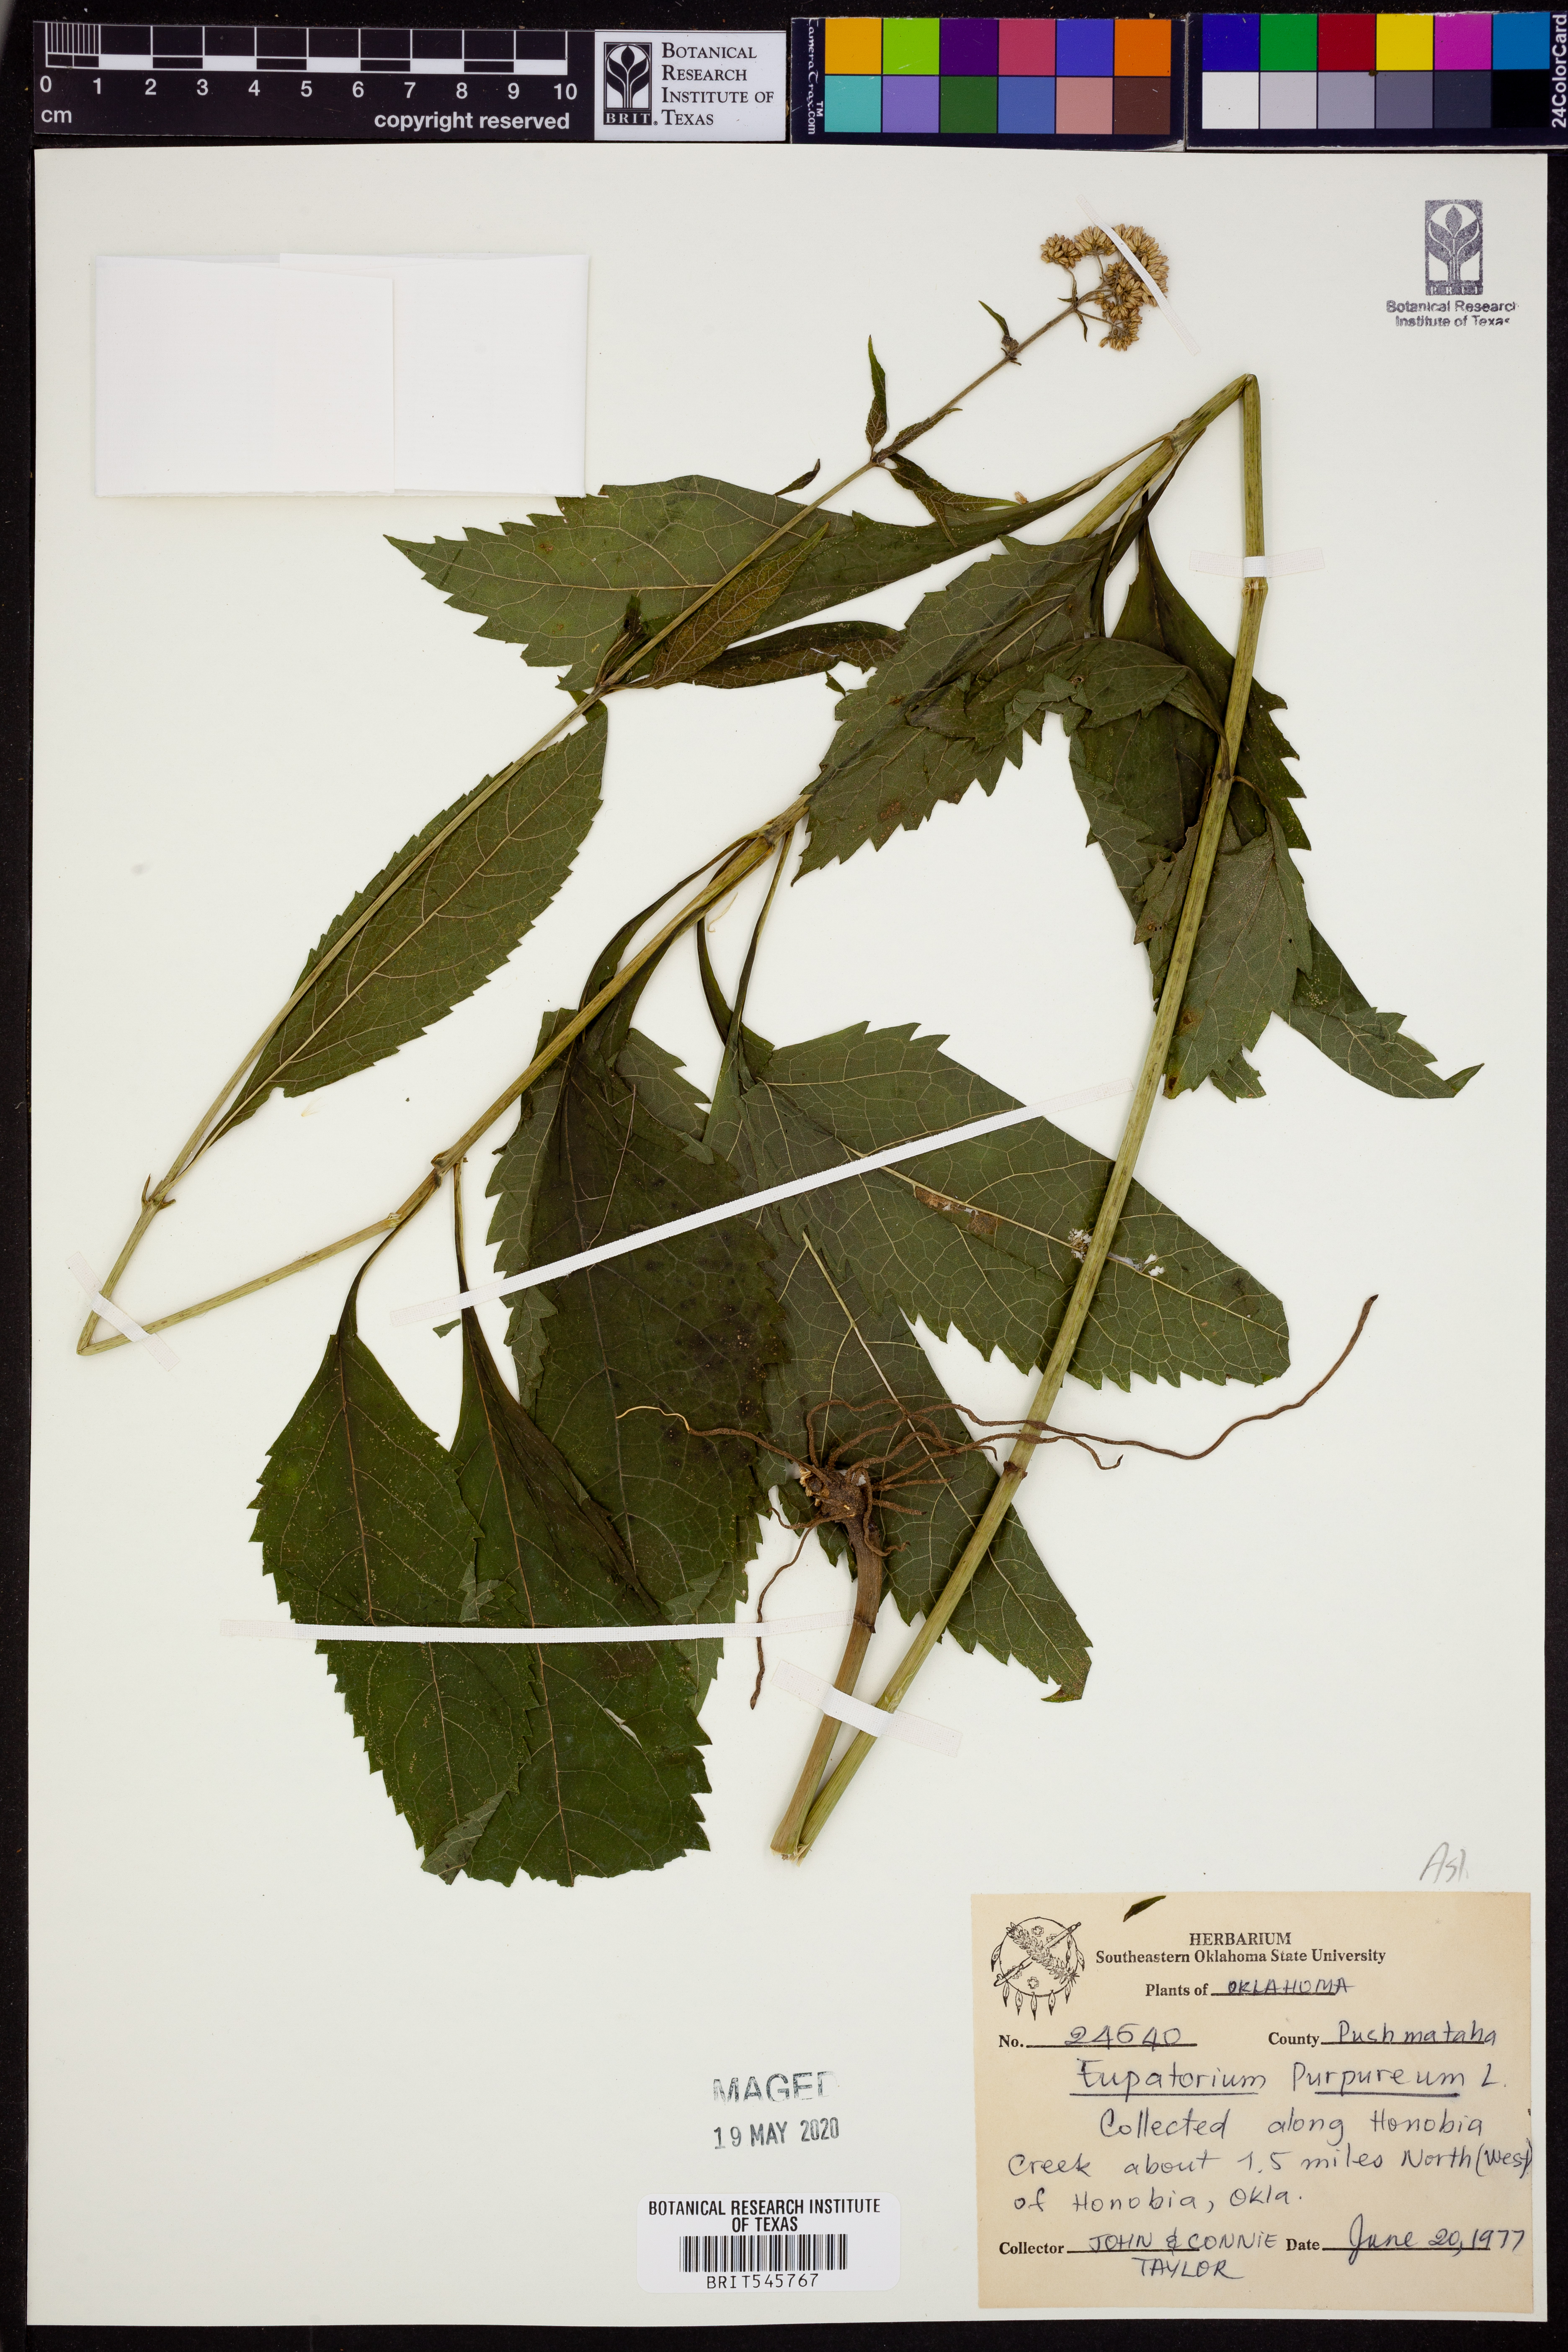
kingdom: Plantae
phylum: Tracheophyta
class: Magnoliopsida
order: Asterales
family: Asteraceae
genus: Eupatorium
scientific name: Eupatorium quaternum
